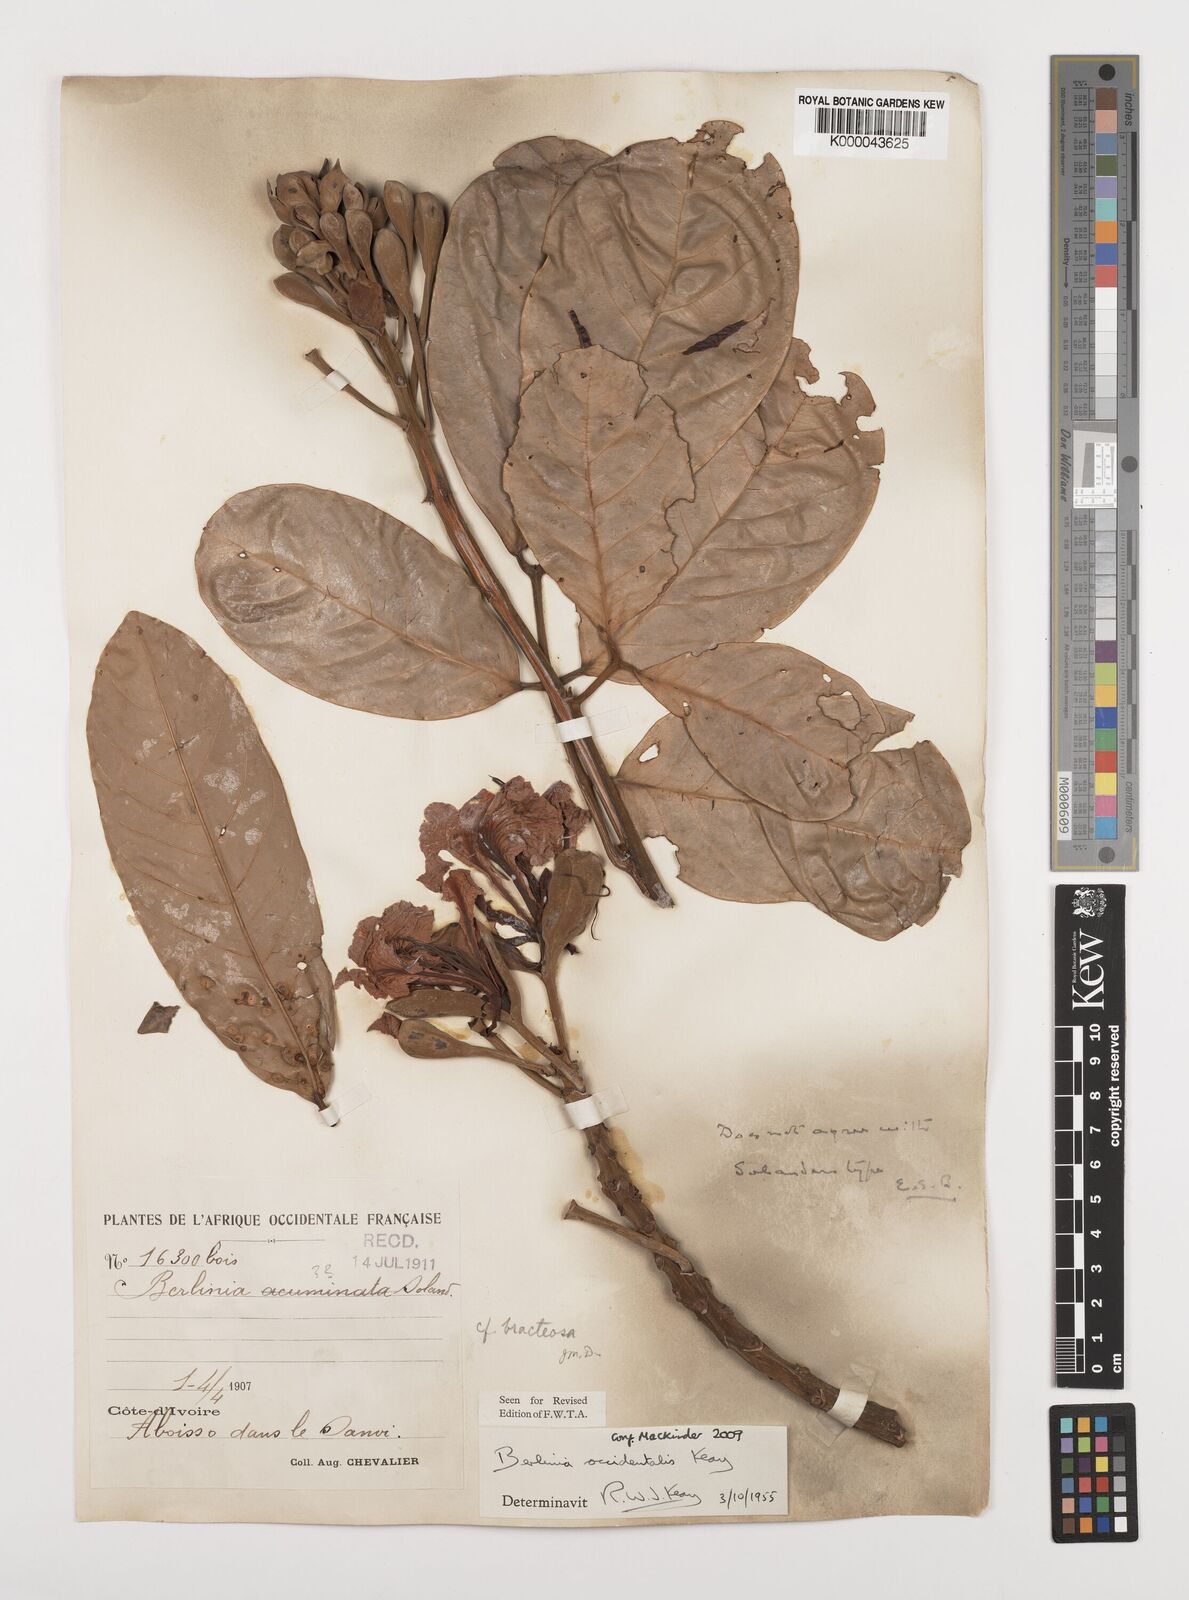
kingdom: Plantae
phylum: Tracheophyta
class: Magnoliopsida
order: Fabales
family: Fabaceae
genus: Berlinia
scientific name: Berlinia occidentalis
